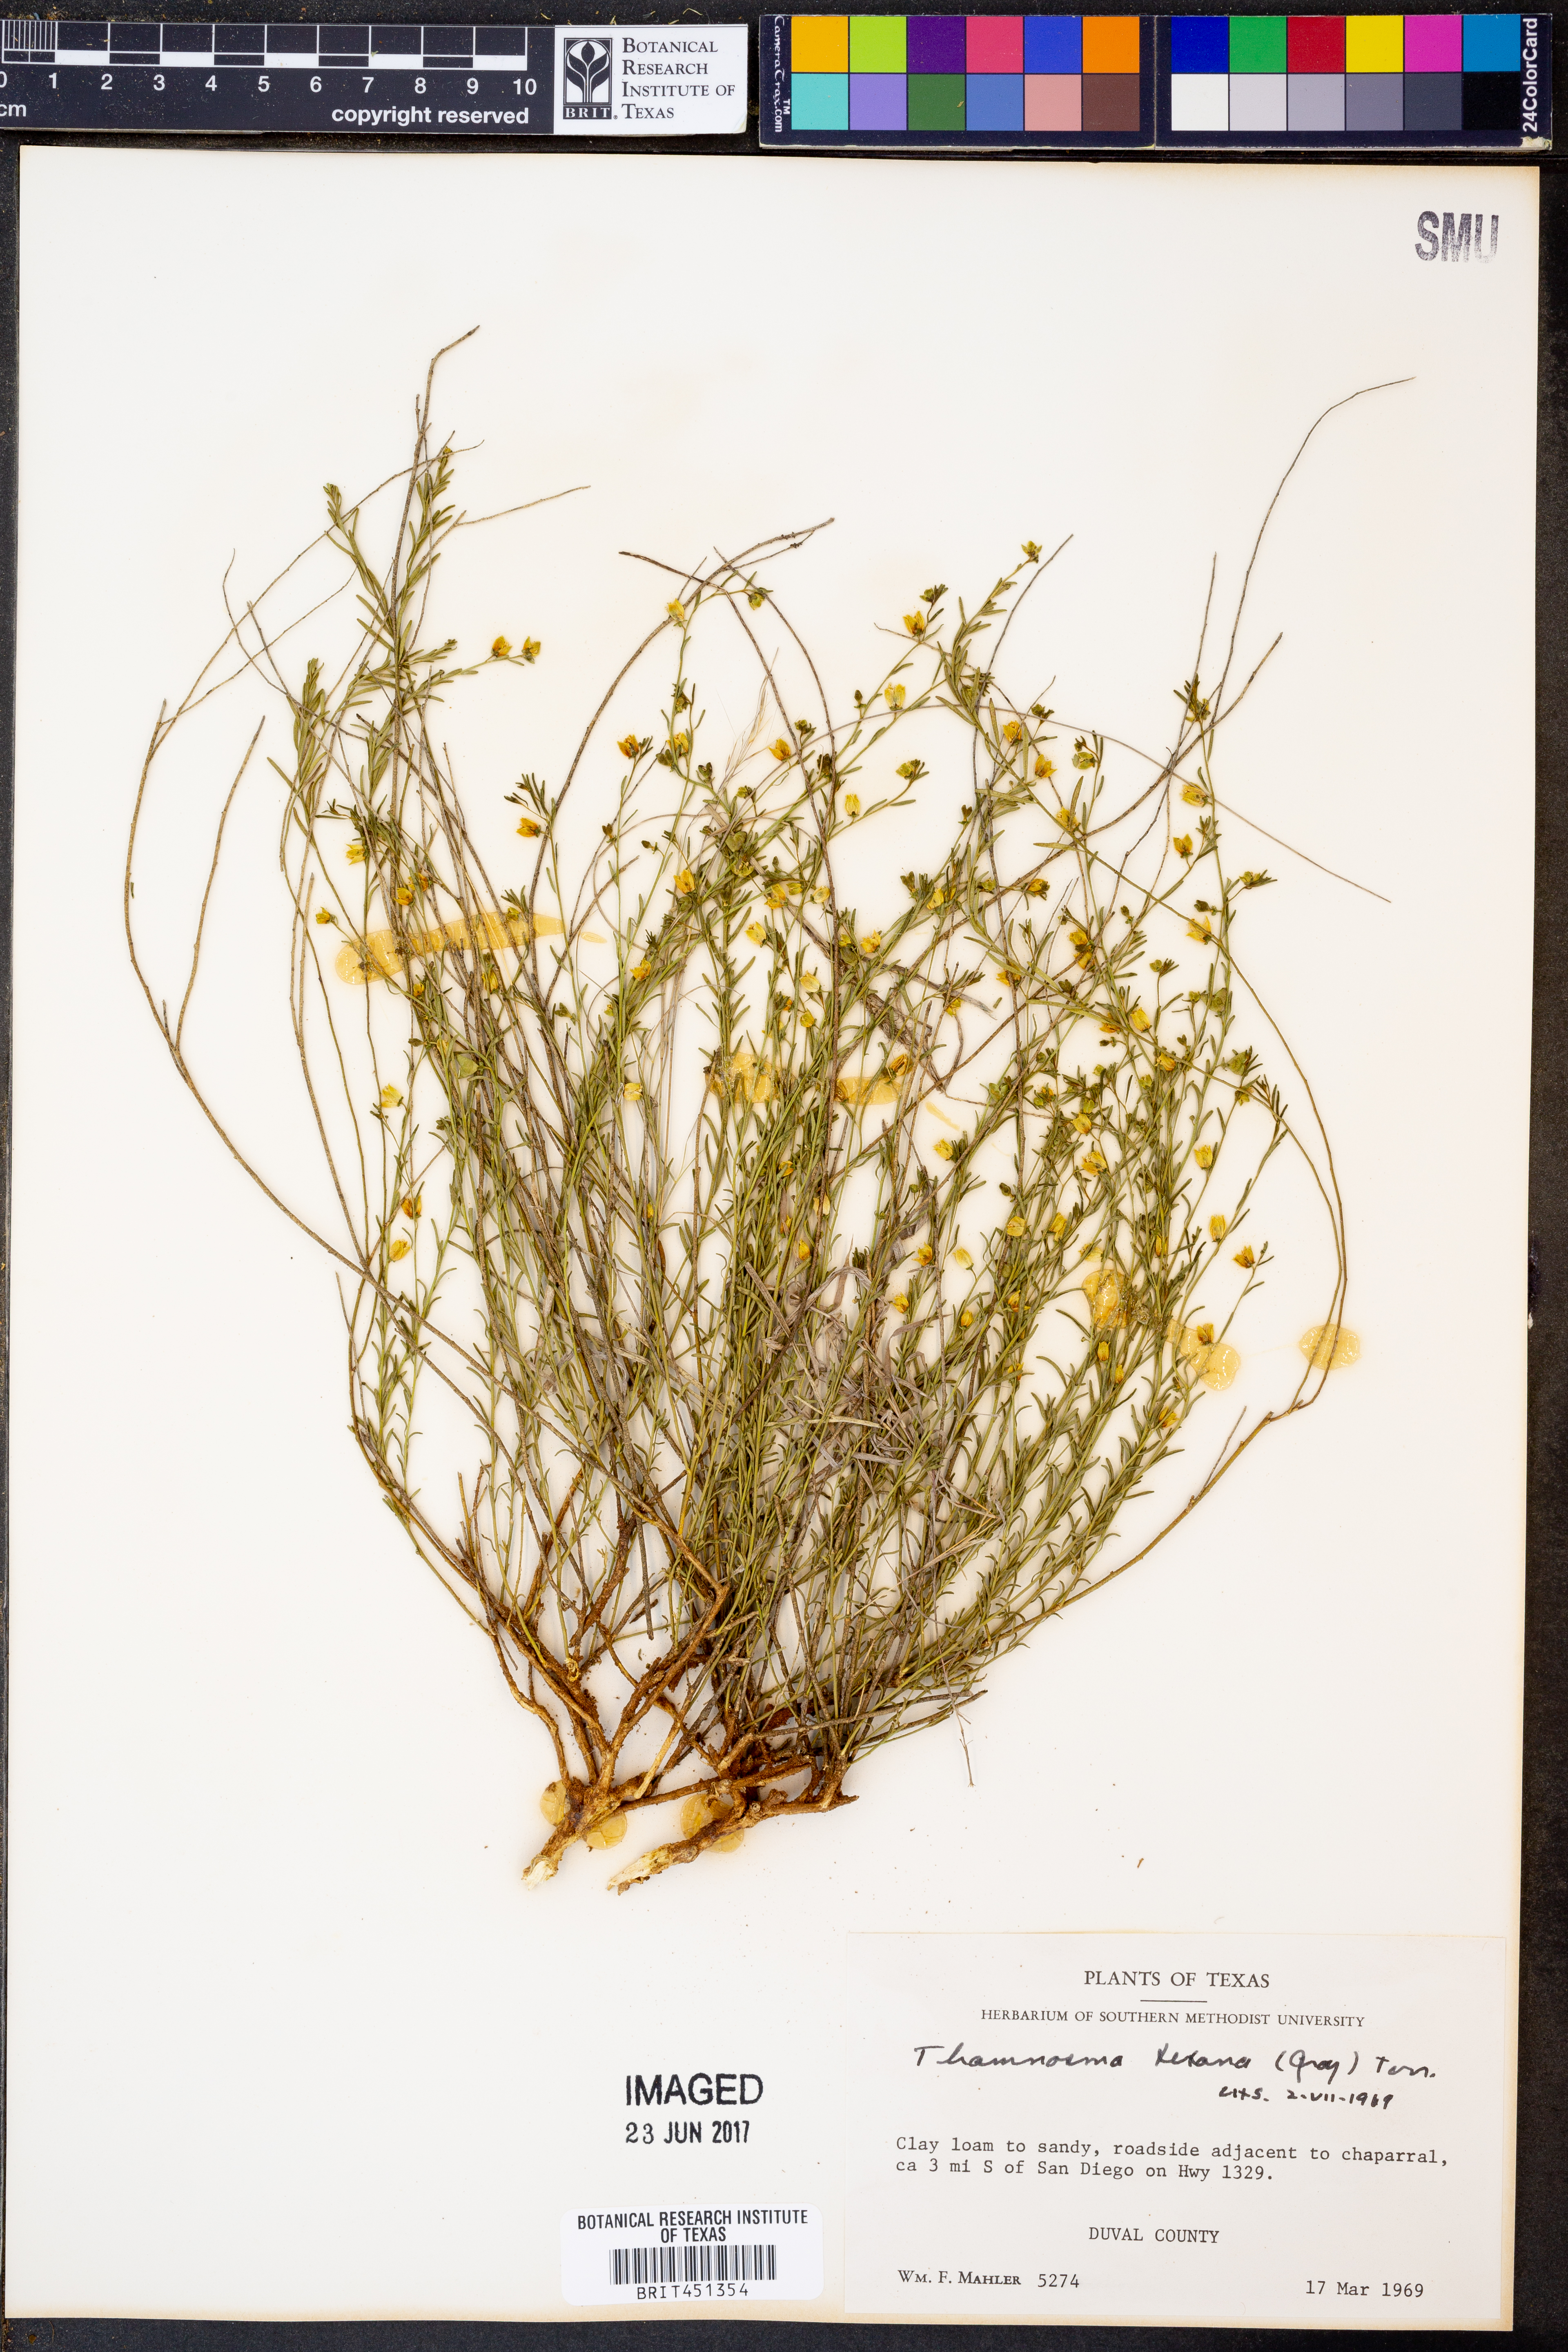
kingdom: Plantae
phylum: Tracheophyta
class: Magnoliopsida
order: Sapindales
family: Rutaceae
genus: Thamnosma
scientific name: Thamnosma texana
